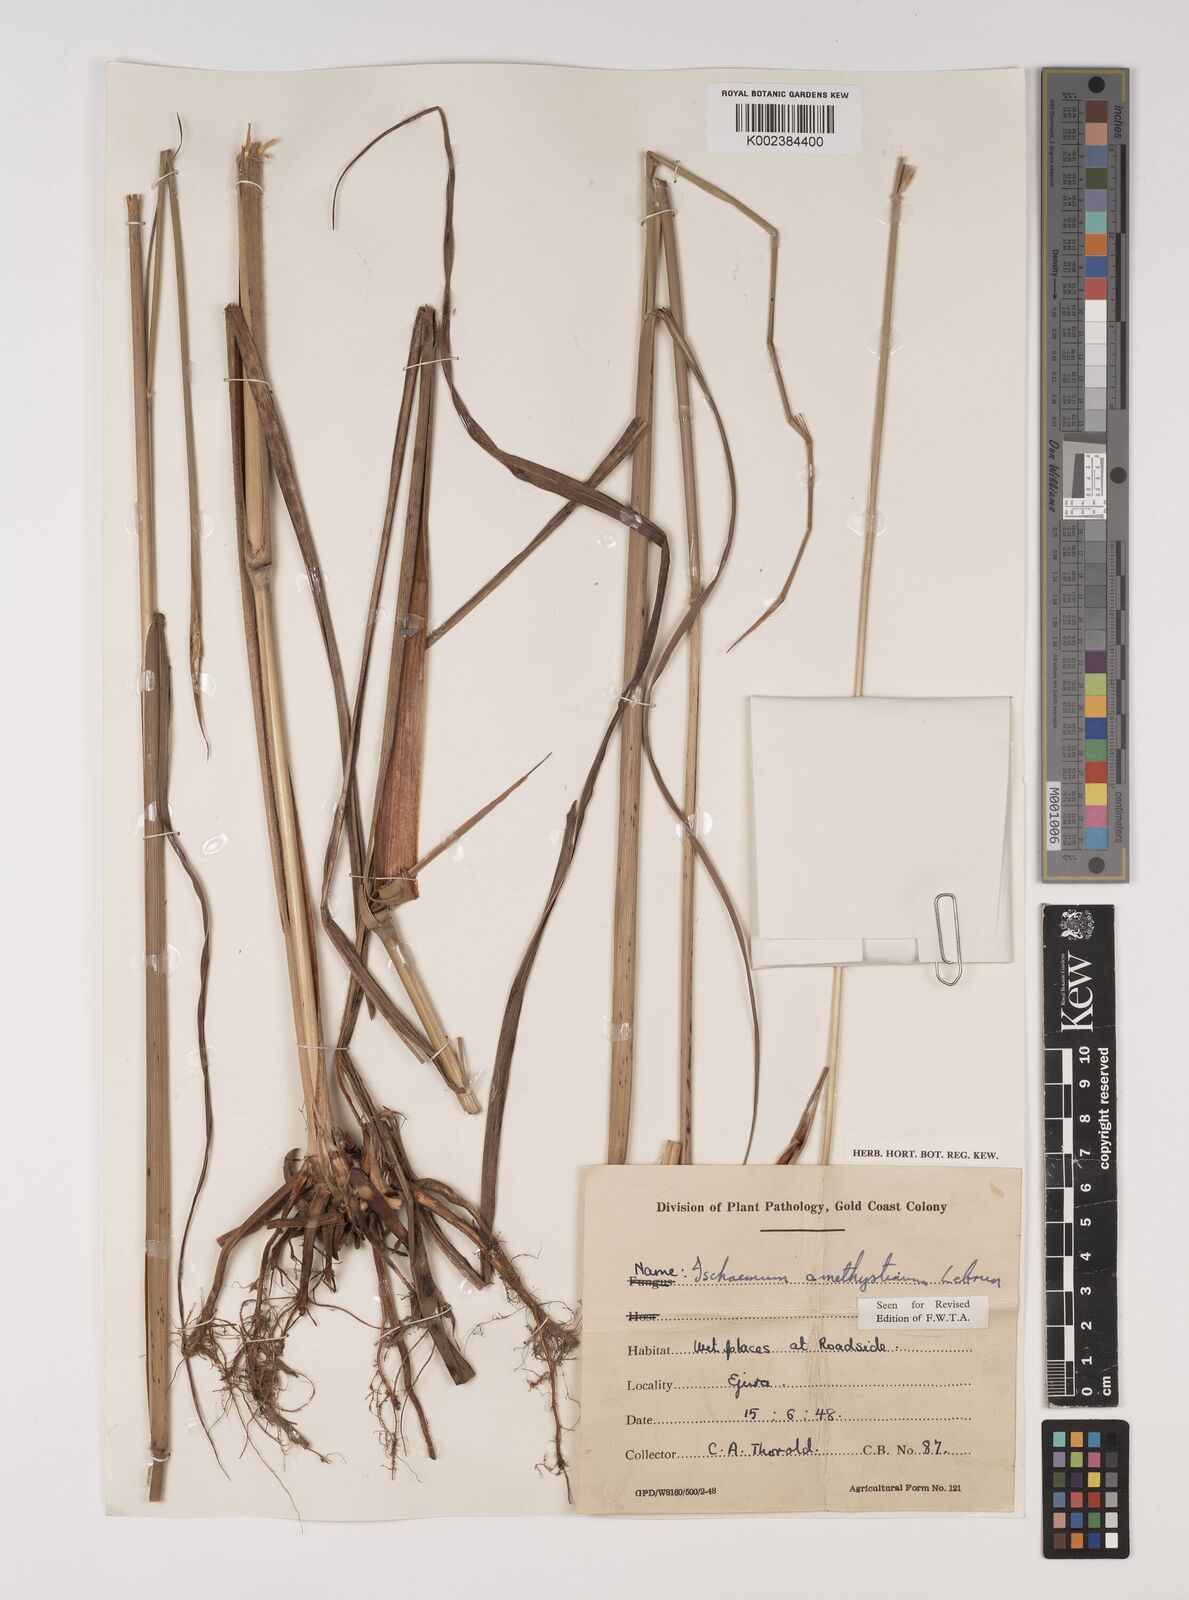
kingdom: Plantae
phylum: Tracheophyta
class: Liliopsida
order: Poales
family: Poaceae
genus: Rottboellia
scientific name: Rottboellia villosa
